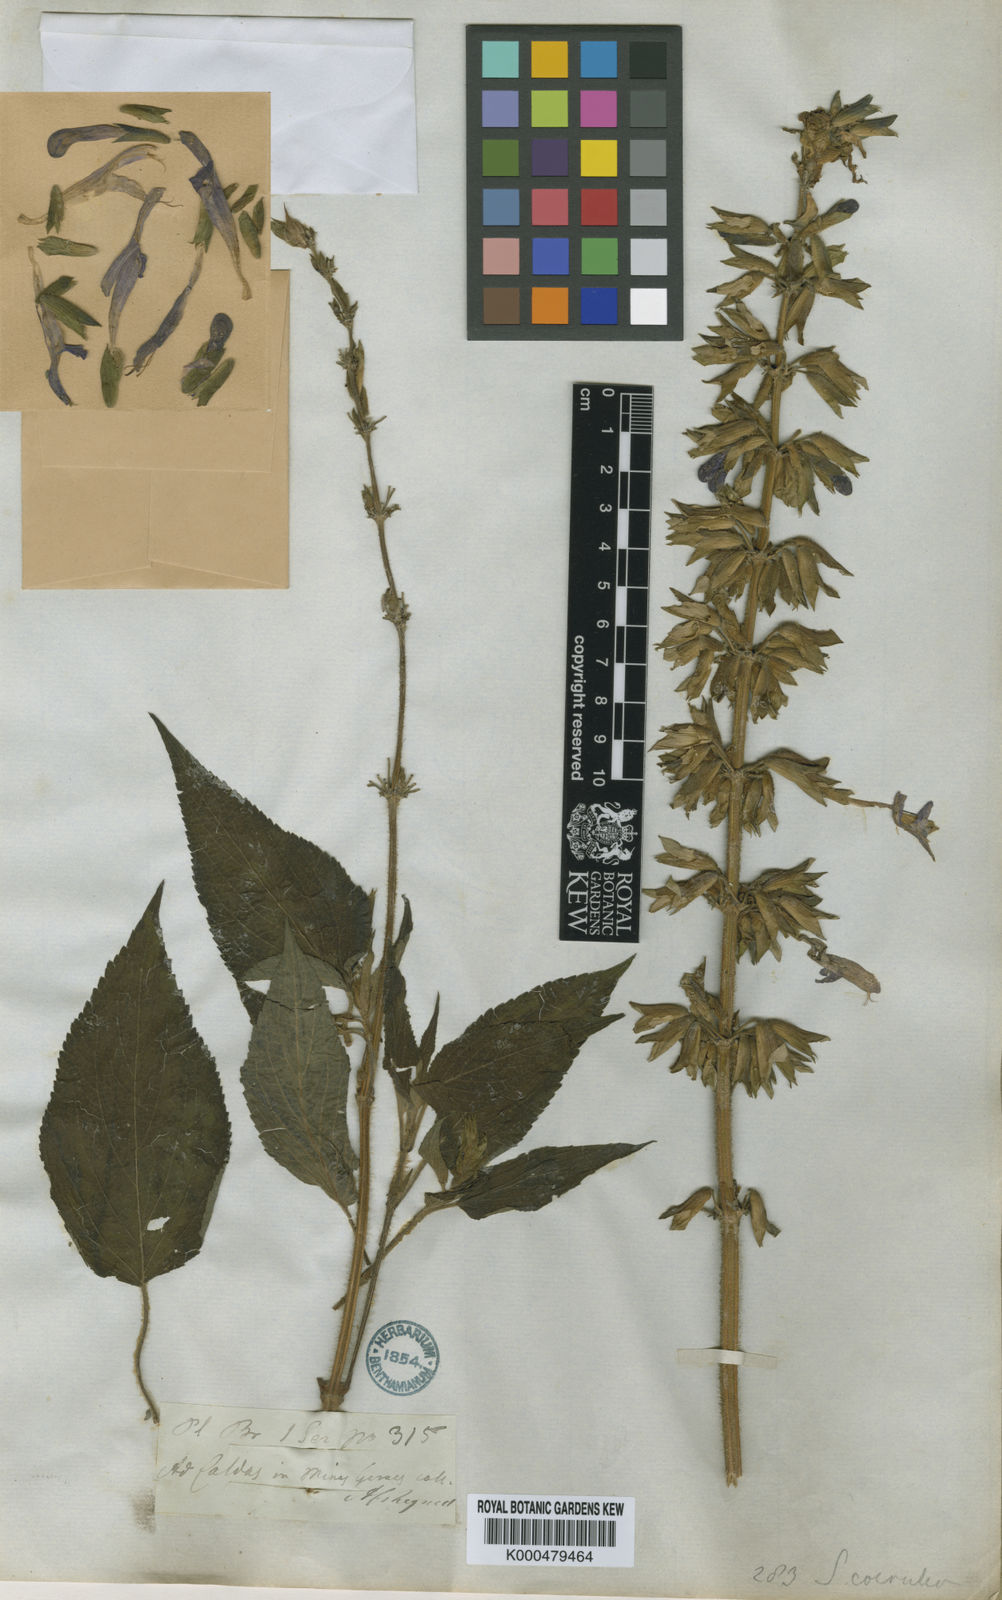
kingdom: Plantae
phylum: Tracheophyta
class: Magnoliopsida
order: Lamiales
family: Lamiaceae
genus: Salvia
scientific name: Salvia lamiifolia
